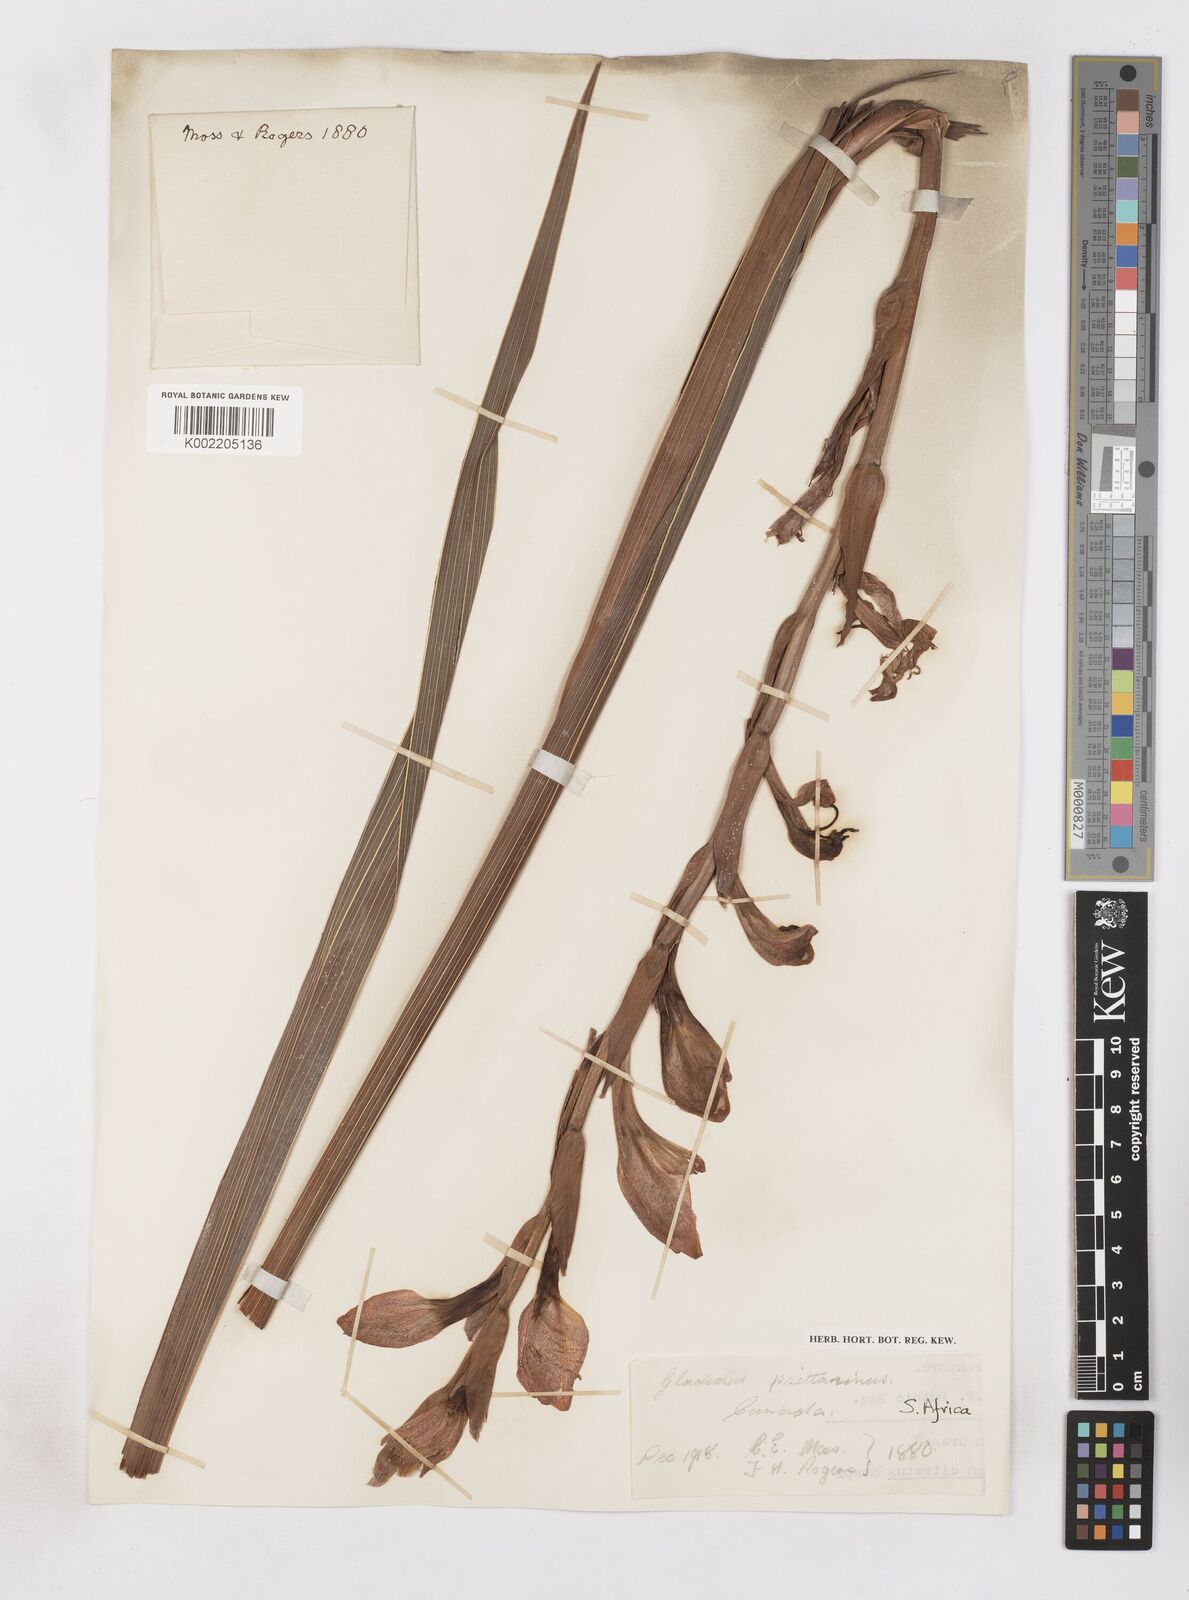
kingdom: Plantae
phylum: Tracheophyta
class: Liliopsida
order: Asparagales
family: Iridaceae
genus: Gladiolus
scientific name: Gladiolus dalenii
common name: Cornflag
